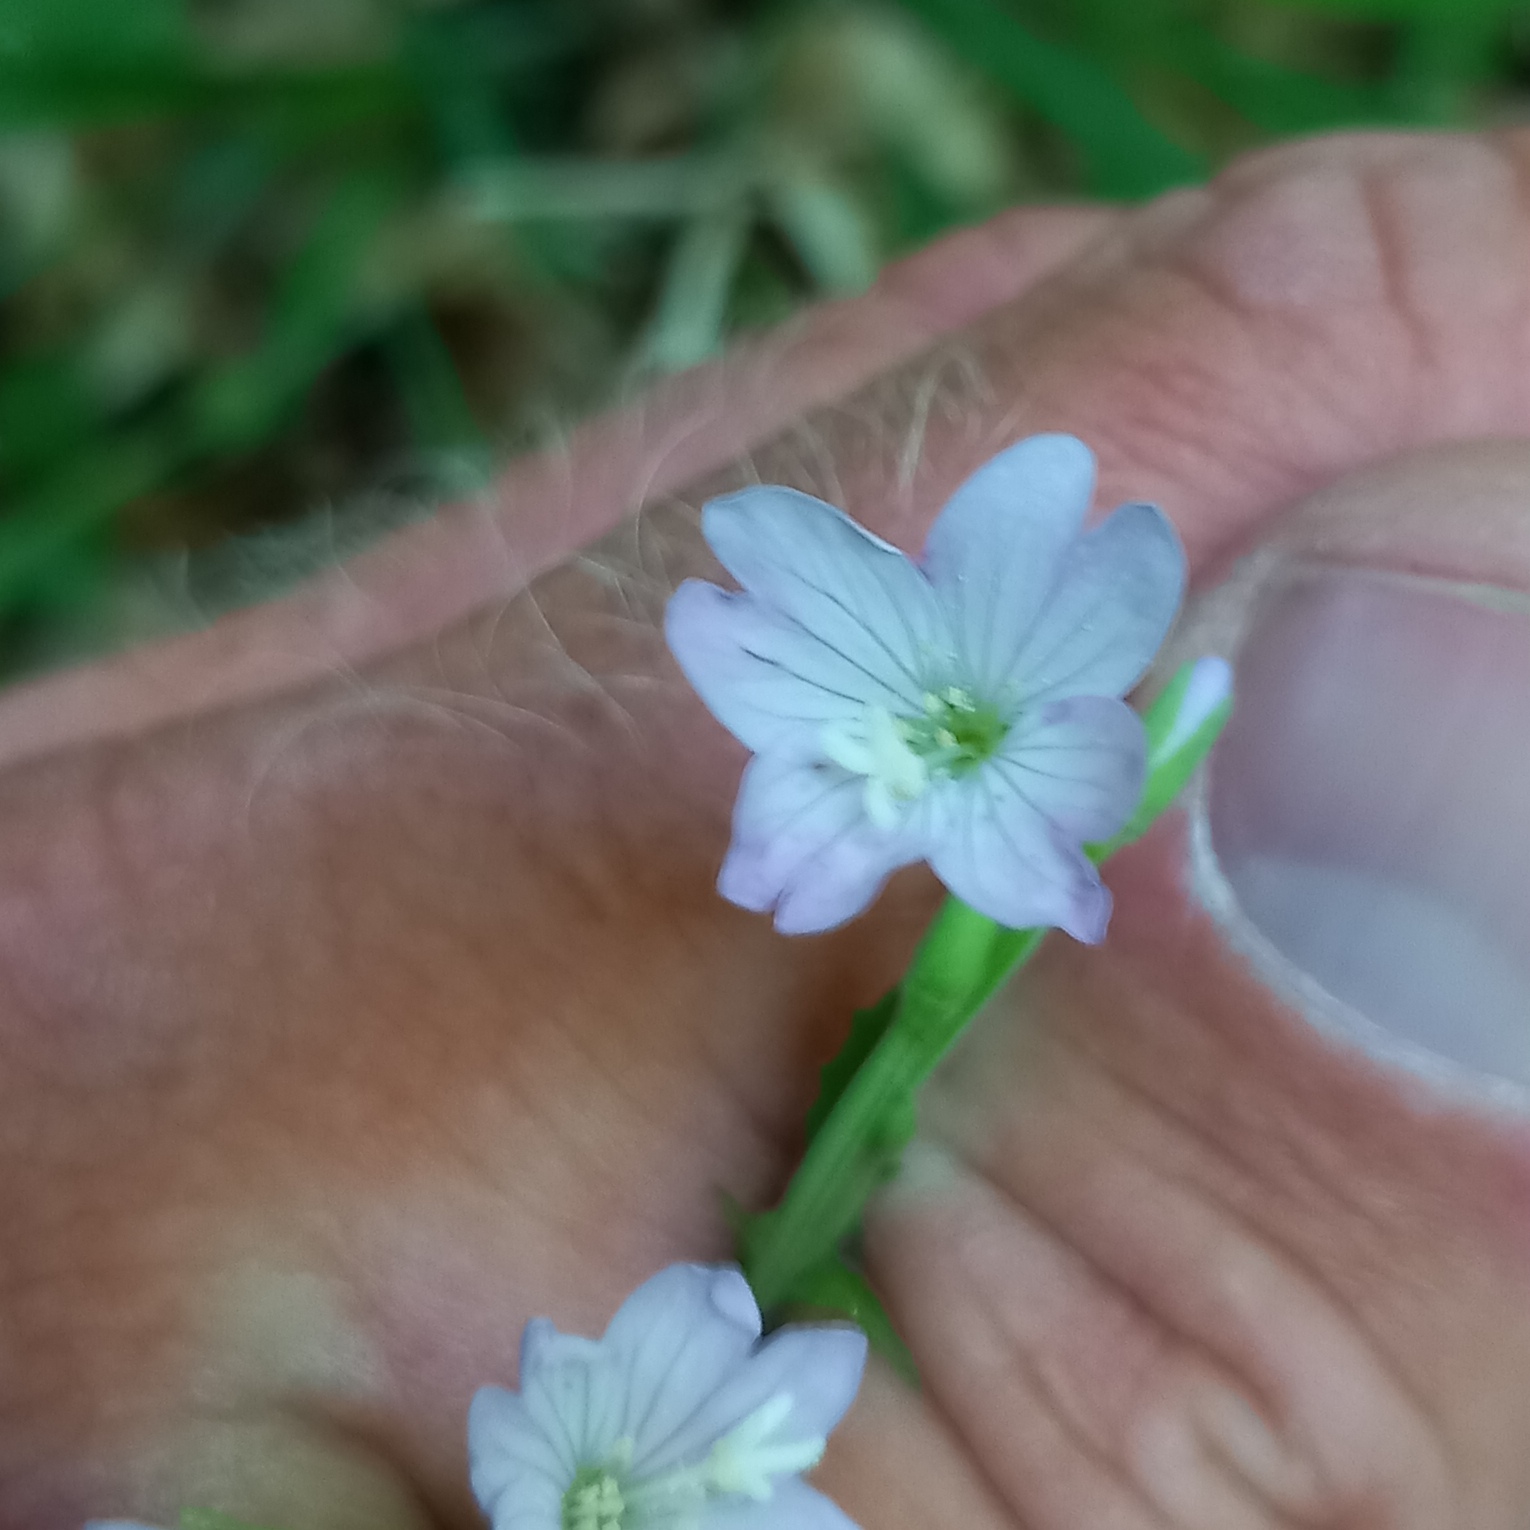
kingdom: Plantae
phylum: Tracheophyta
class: Magnoliopsida
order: Myrtales
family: Onagraceae
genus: Epilobium
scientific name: Epilobium montanum
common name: Glat dueurt
